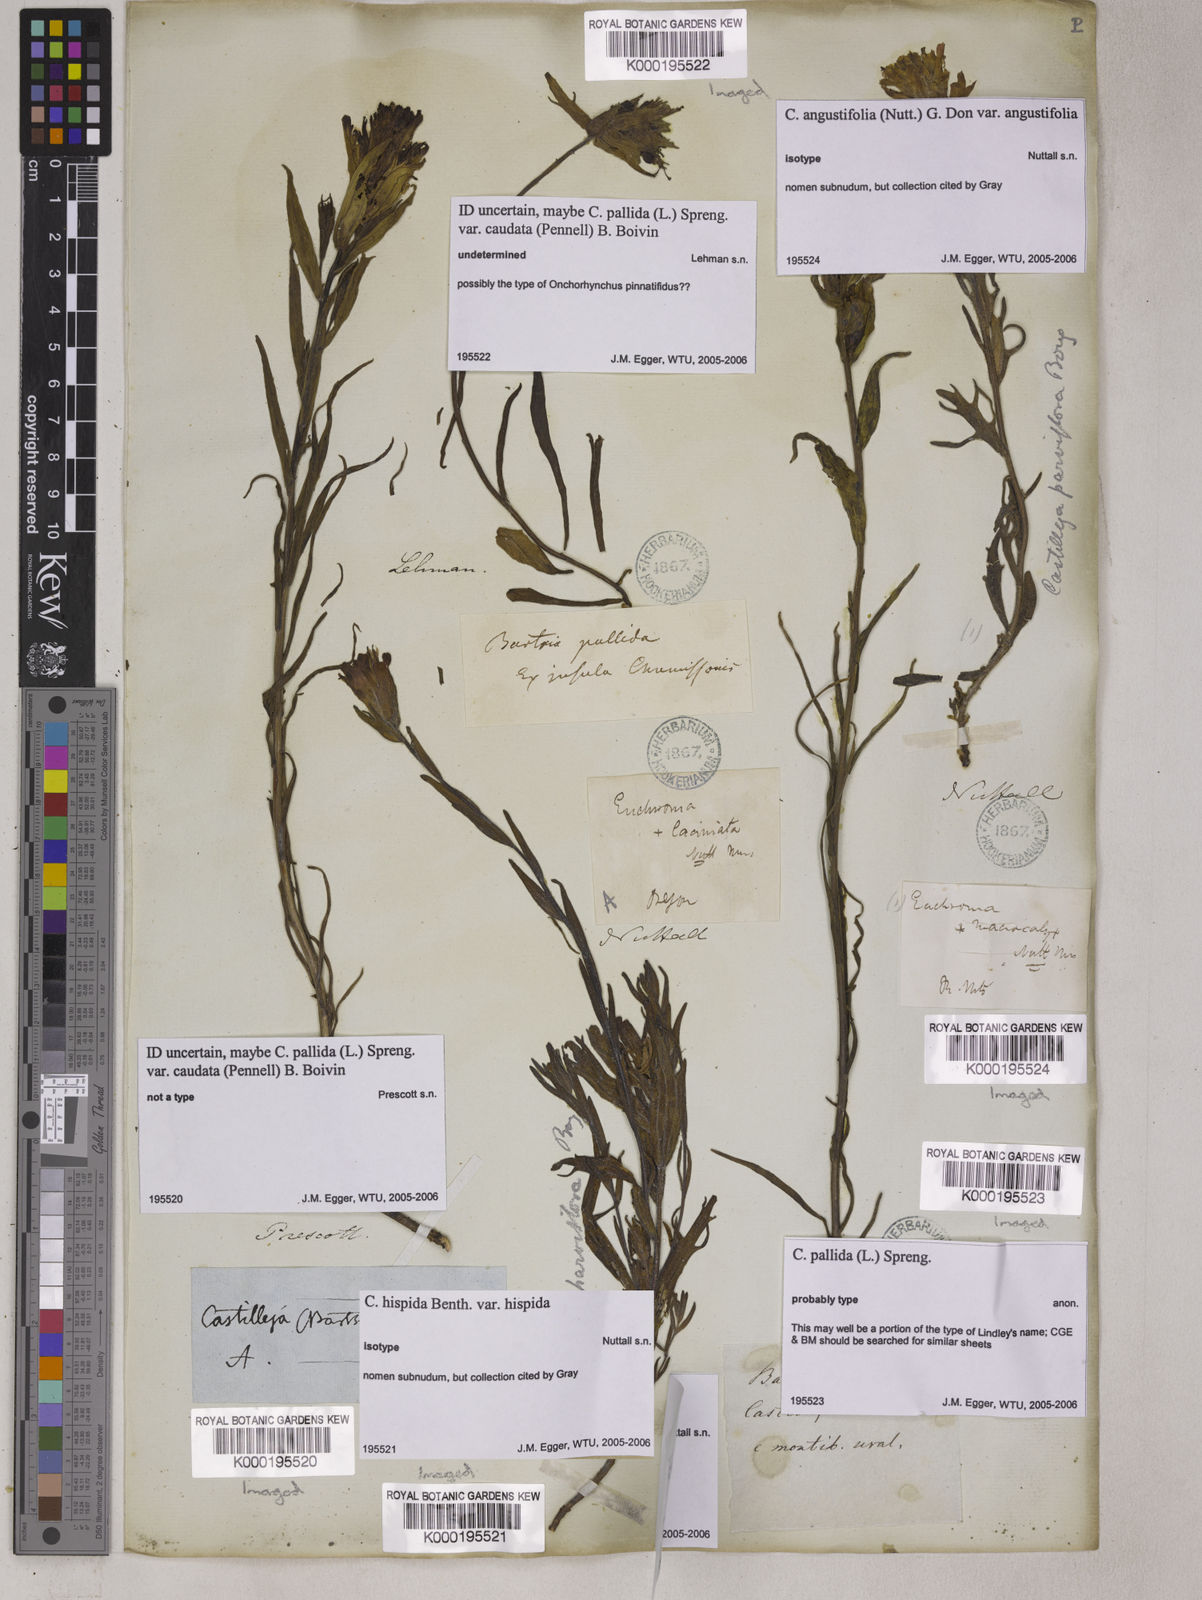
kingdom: Plantae
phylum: Tracheophyta
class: Magnoliopsida
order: Lamiales
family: Orobanchaceae
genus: Castilleja
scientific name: Castilleja hispida
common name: Bristly paintbrush
